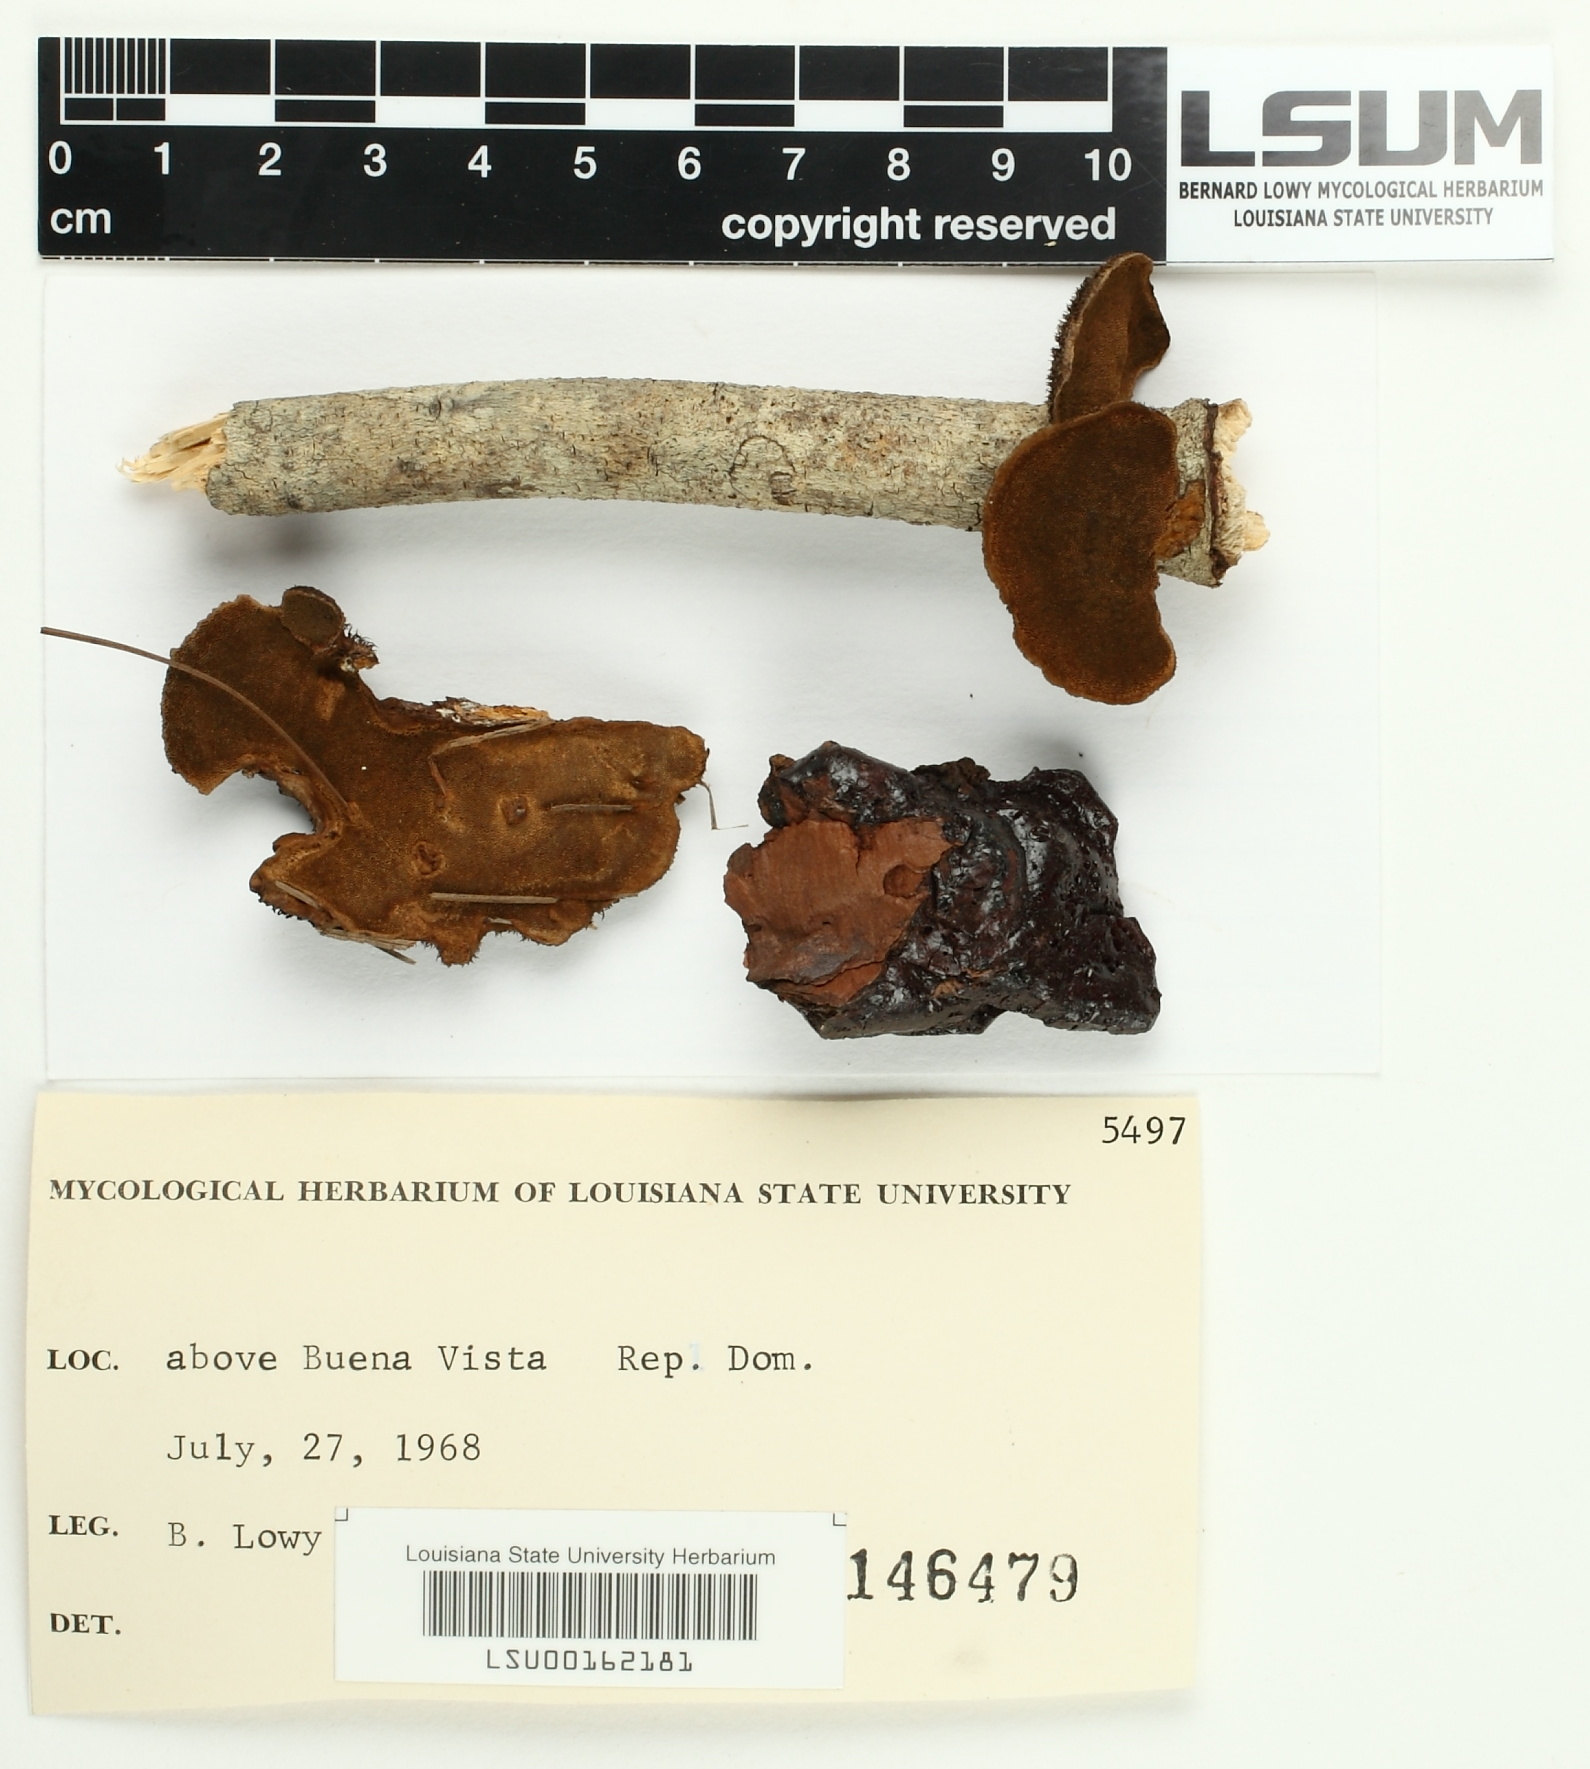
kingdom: Fungi
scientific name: Fungi
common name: Fungi
